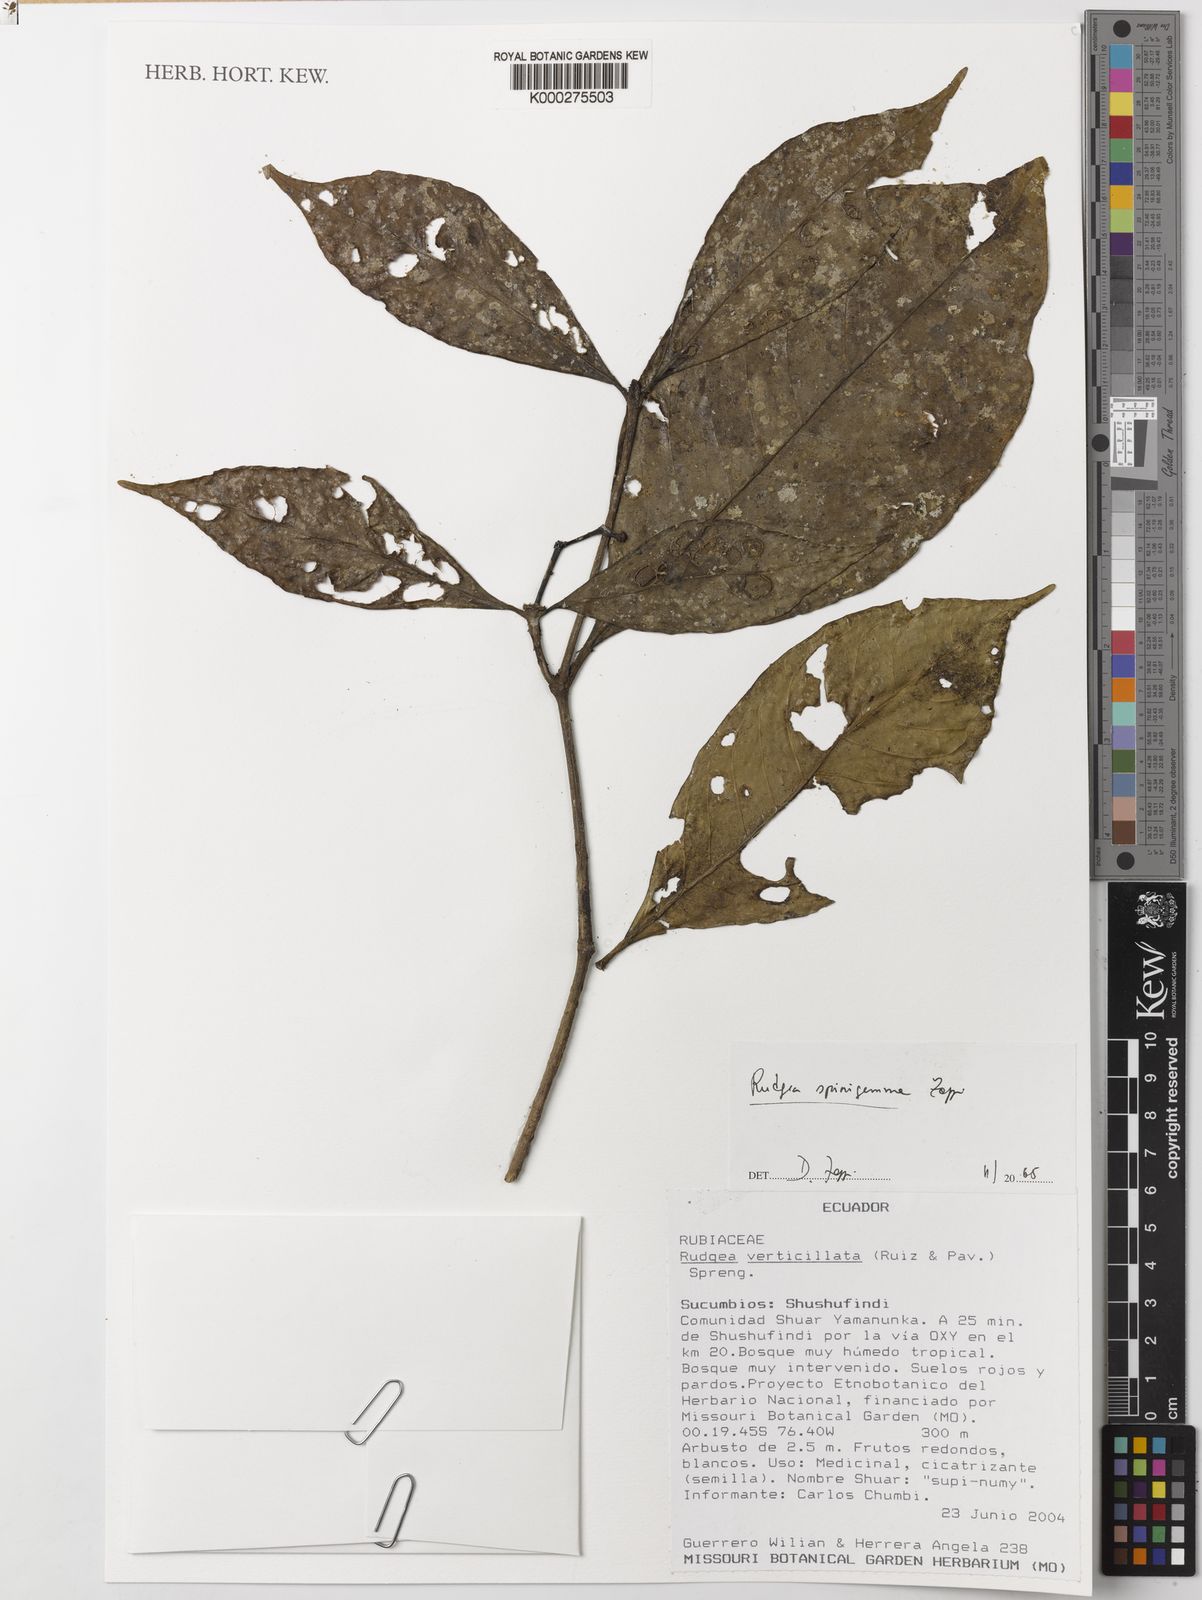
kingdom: Plantae
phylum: Tracheophyta
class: Magnoliopsida
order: Gentianales
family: Rubiaceae
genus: Rudgea
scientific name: Rudgea spinigemma
